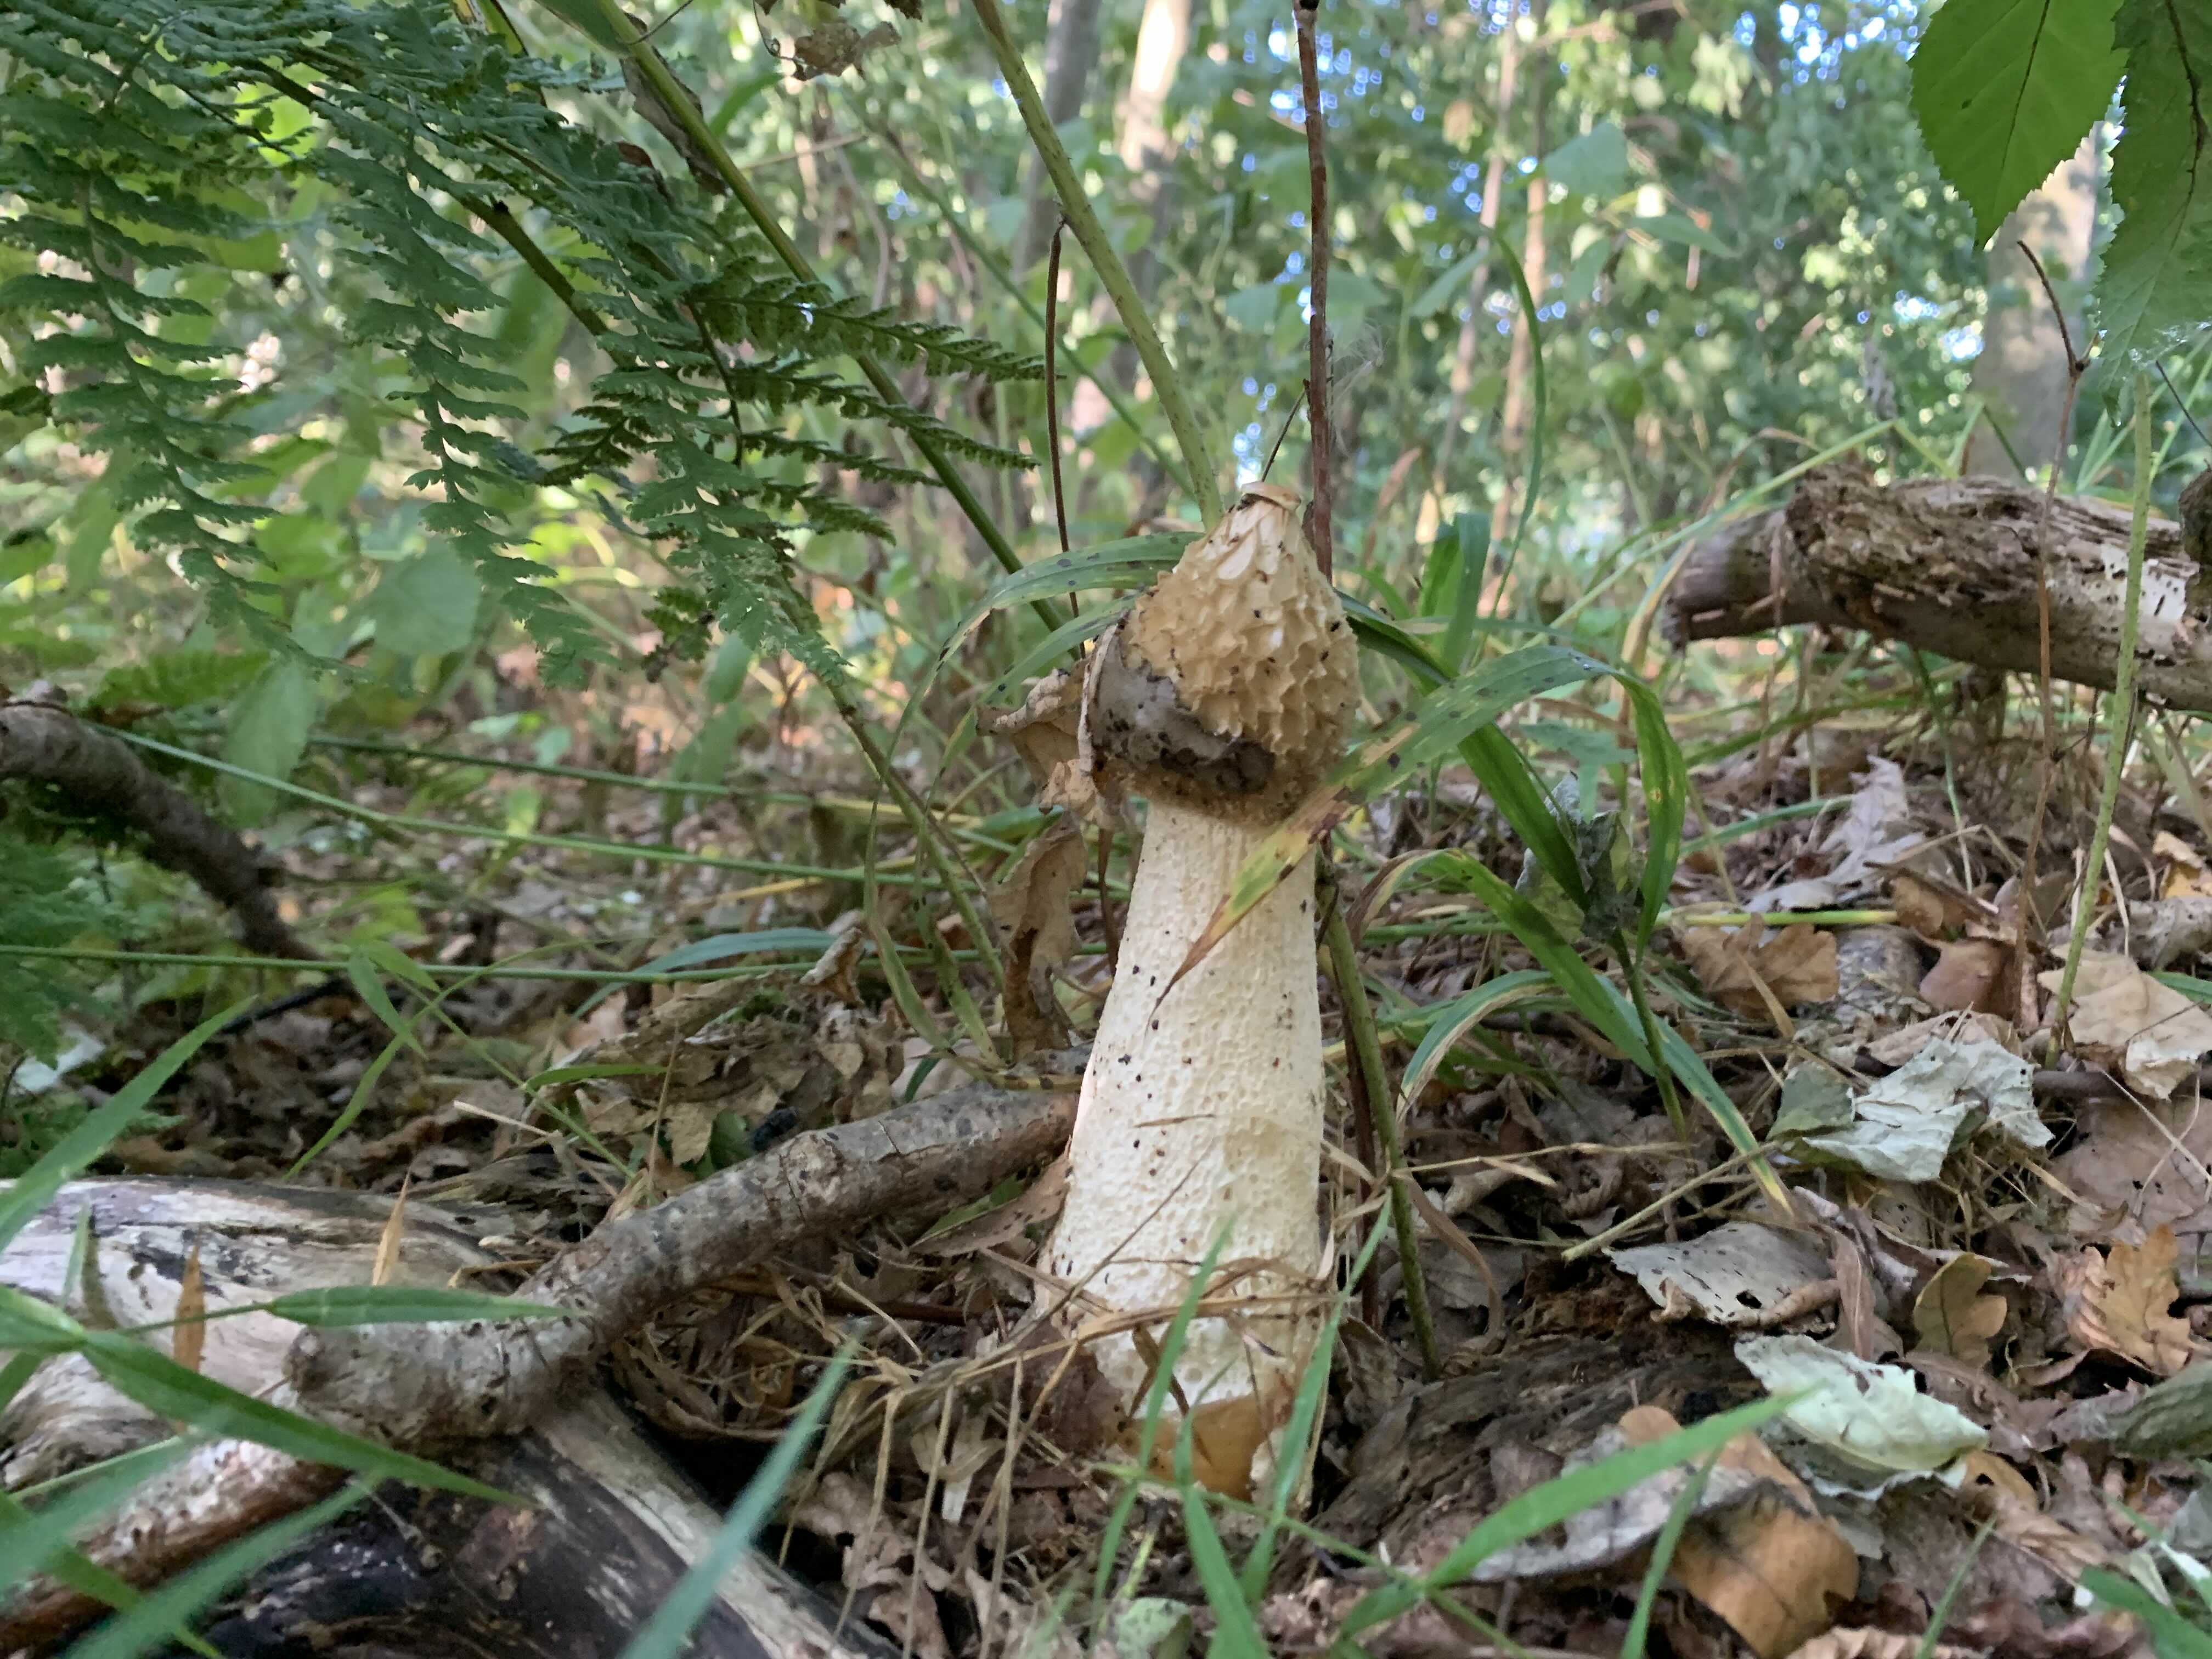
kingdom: Fungi
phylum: Basidiomycota
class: Agaricomycetes
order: Phallales
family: Phallaceae
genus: Phallus
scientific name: Phallus impudicus
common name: almindelig stinksvamp
